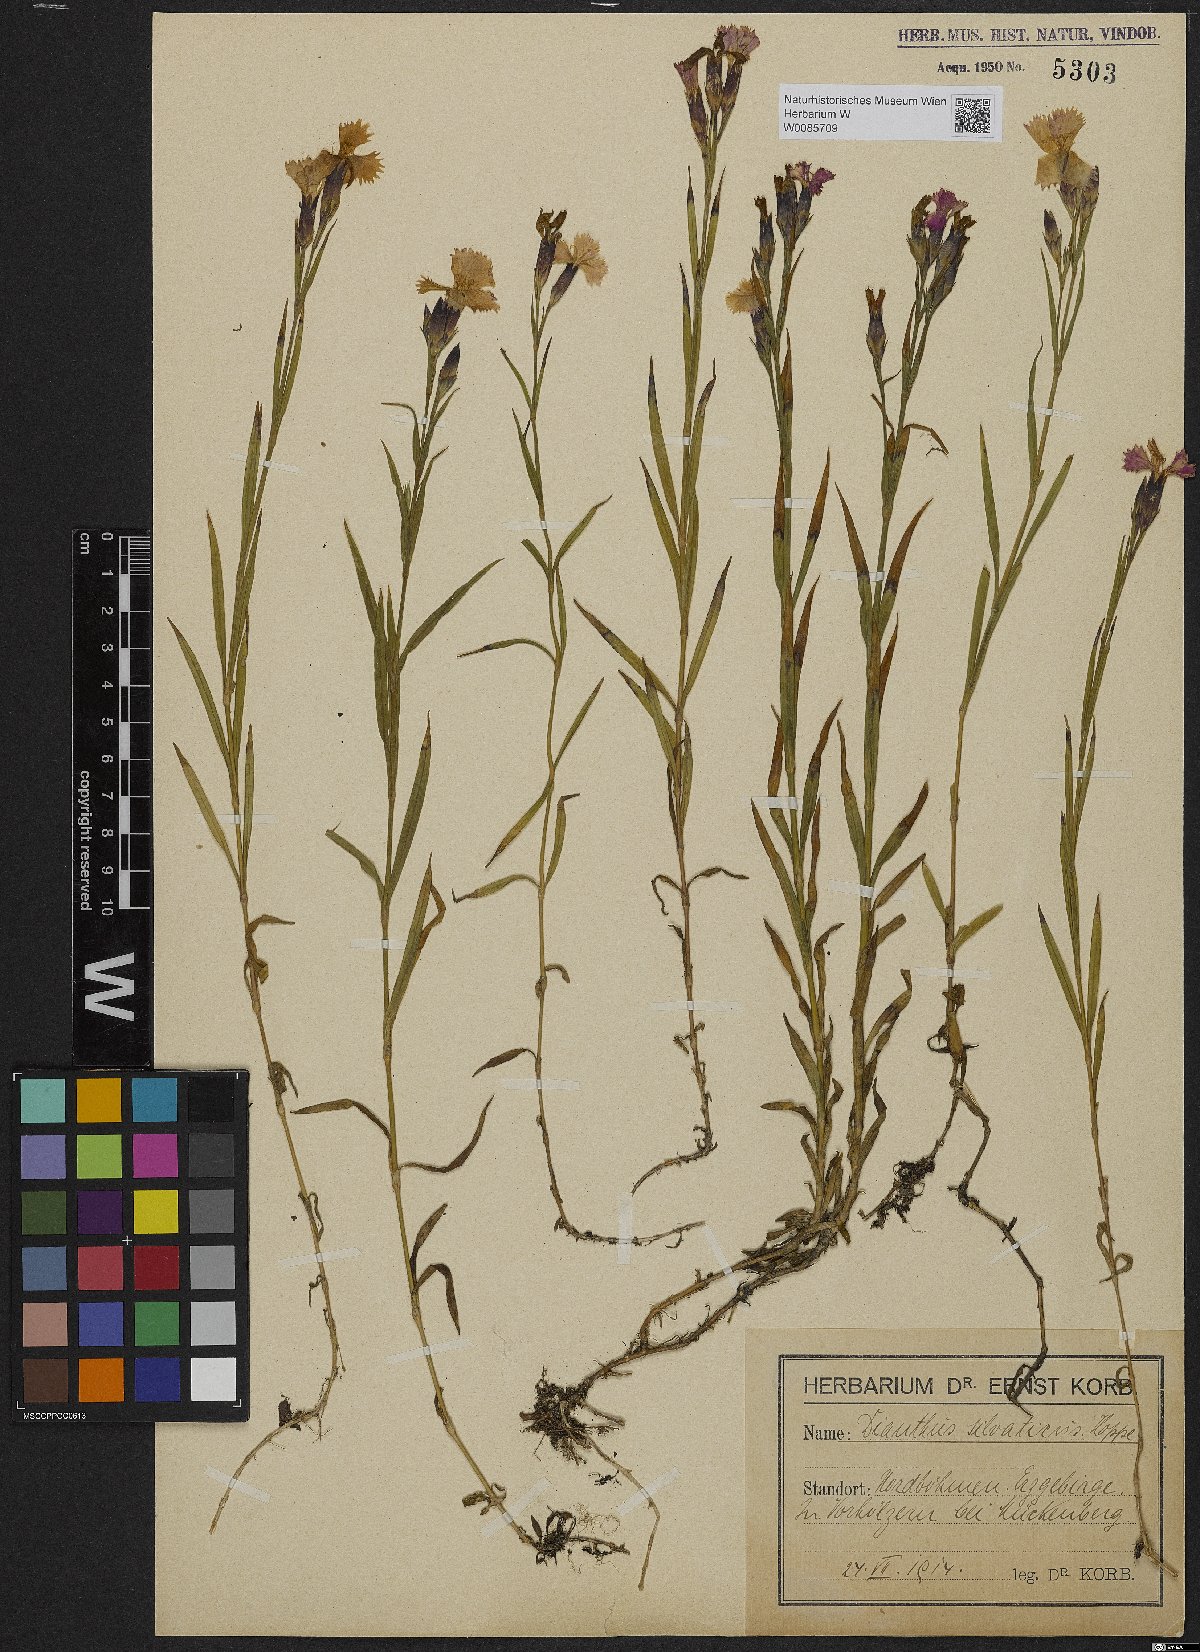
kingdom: Plantae
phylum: Tracheophyta
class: Magnoliopsida
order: Caryophyllales
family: Caryophyllaceae
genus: Dianthus
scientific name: Dianthus seguieri
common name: Ragged pink
